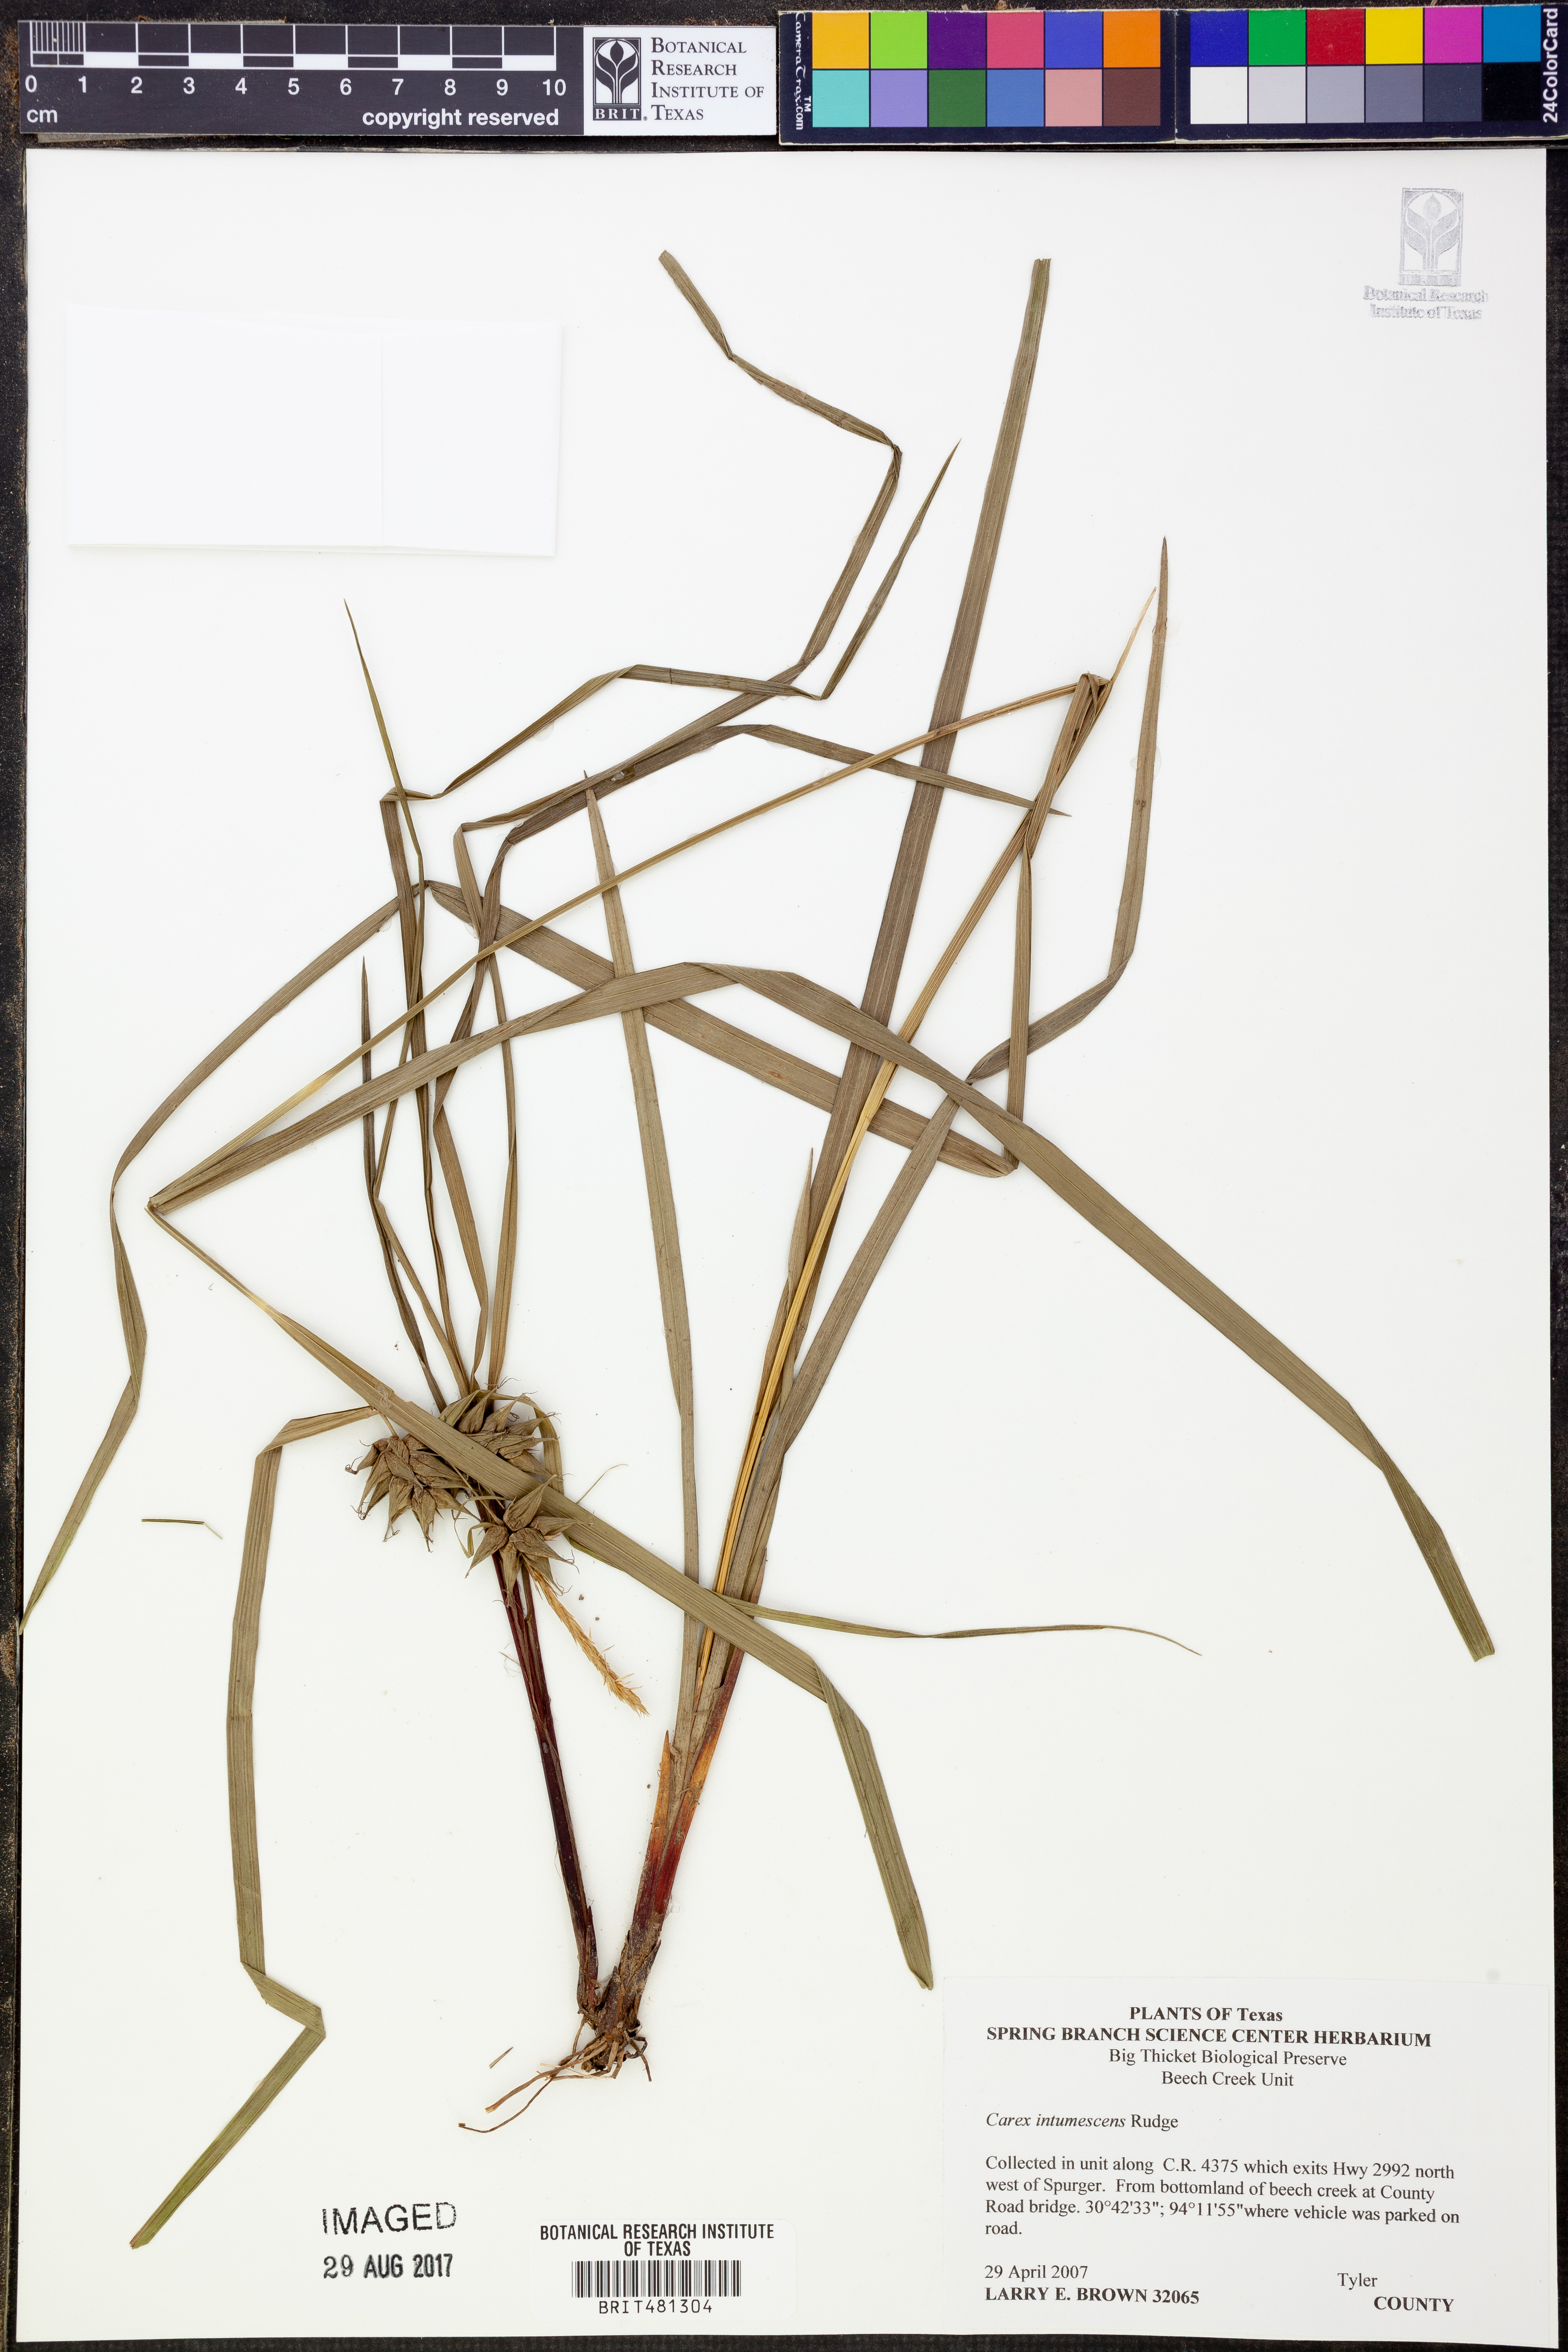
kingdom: Plantae
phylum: Tracheophyta
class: Liliopsida
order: Poales
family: Cyperaceae
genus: Carex
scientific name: Carex intumescens
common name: Greater bladder sedge
